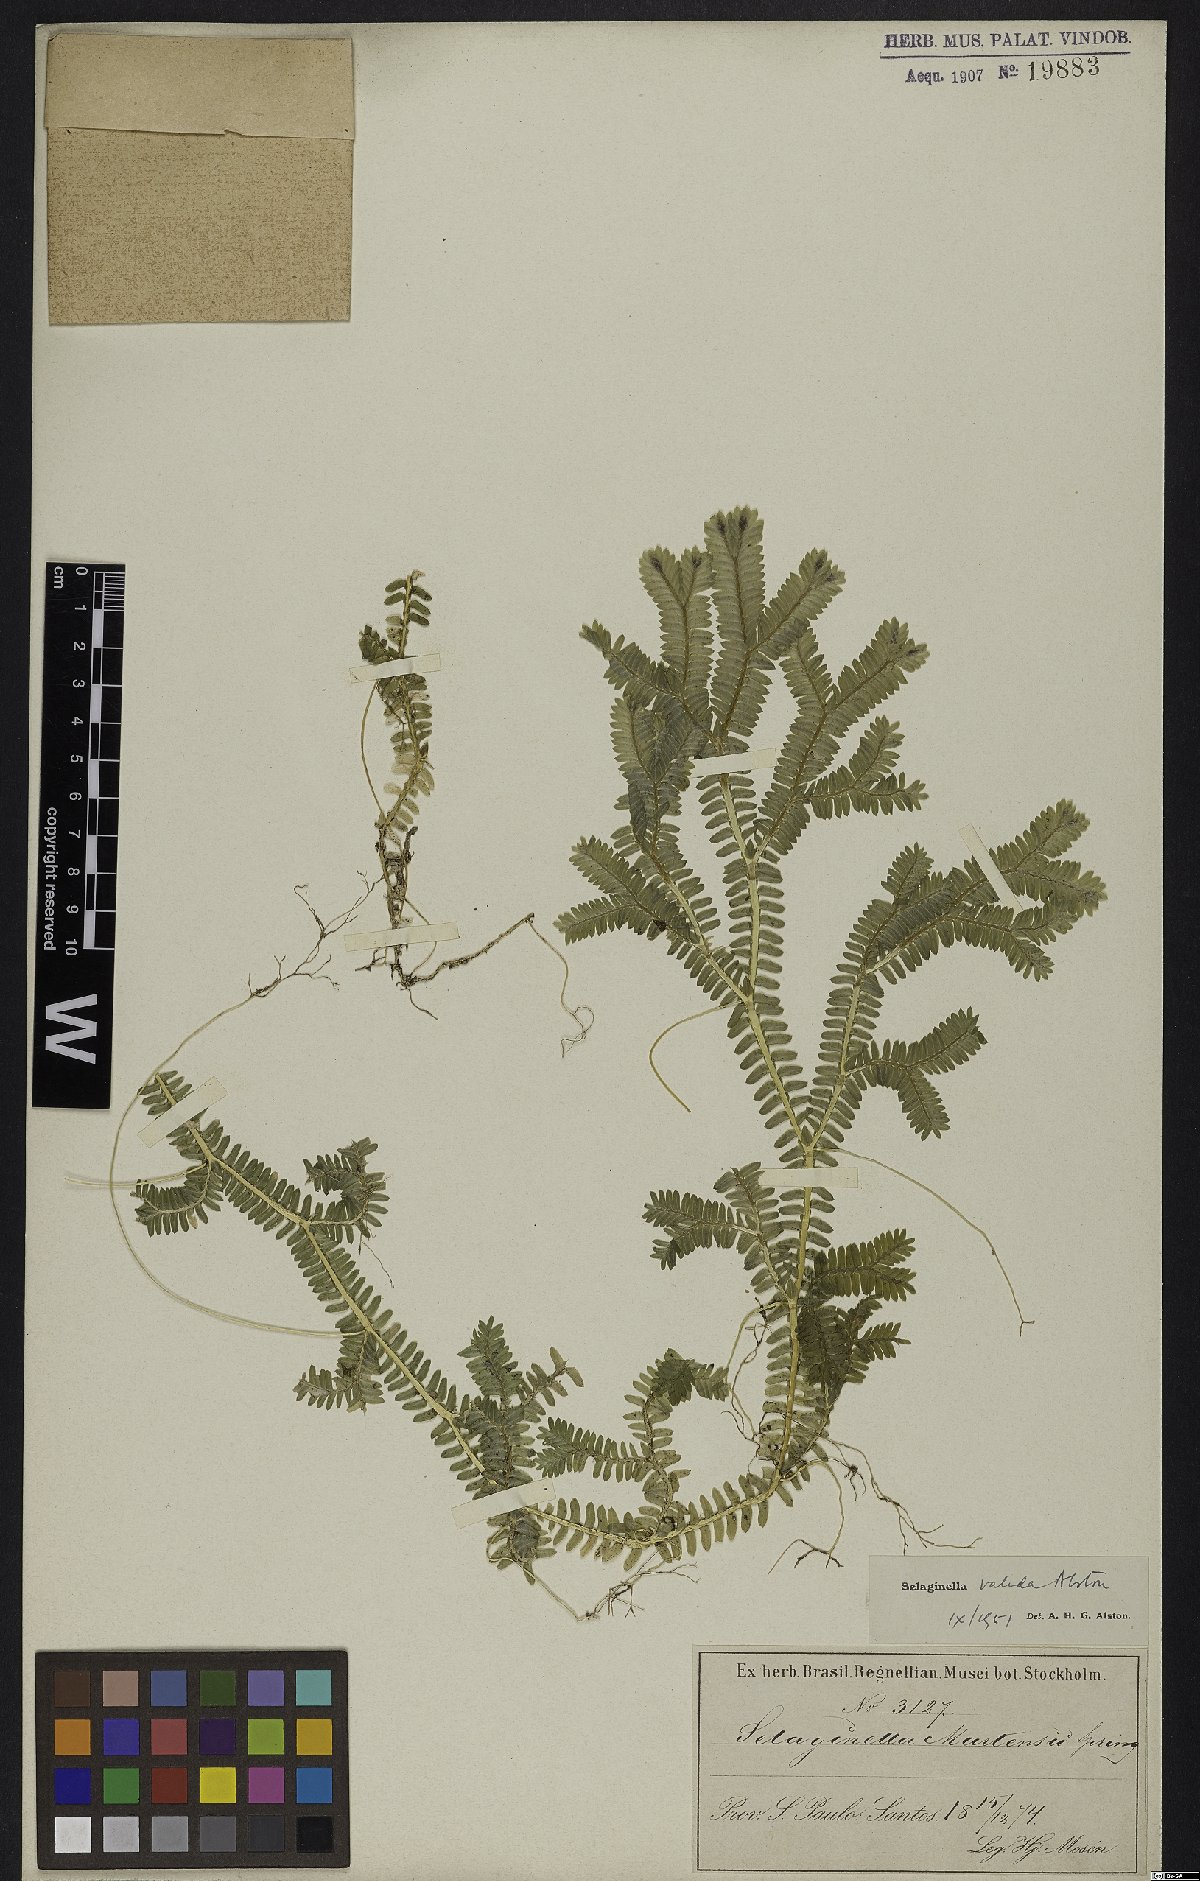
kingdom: Plantae
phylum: Tracheophyta
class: Lycopodiopsida
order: Selaginellales
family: Selaginellaceae
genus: Selaginella
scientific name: Selaginella sellowii
